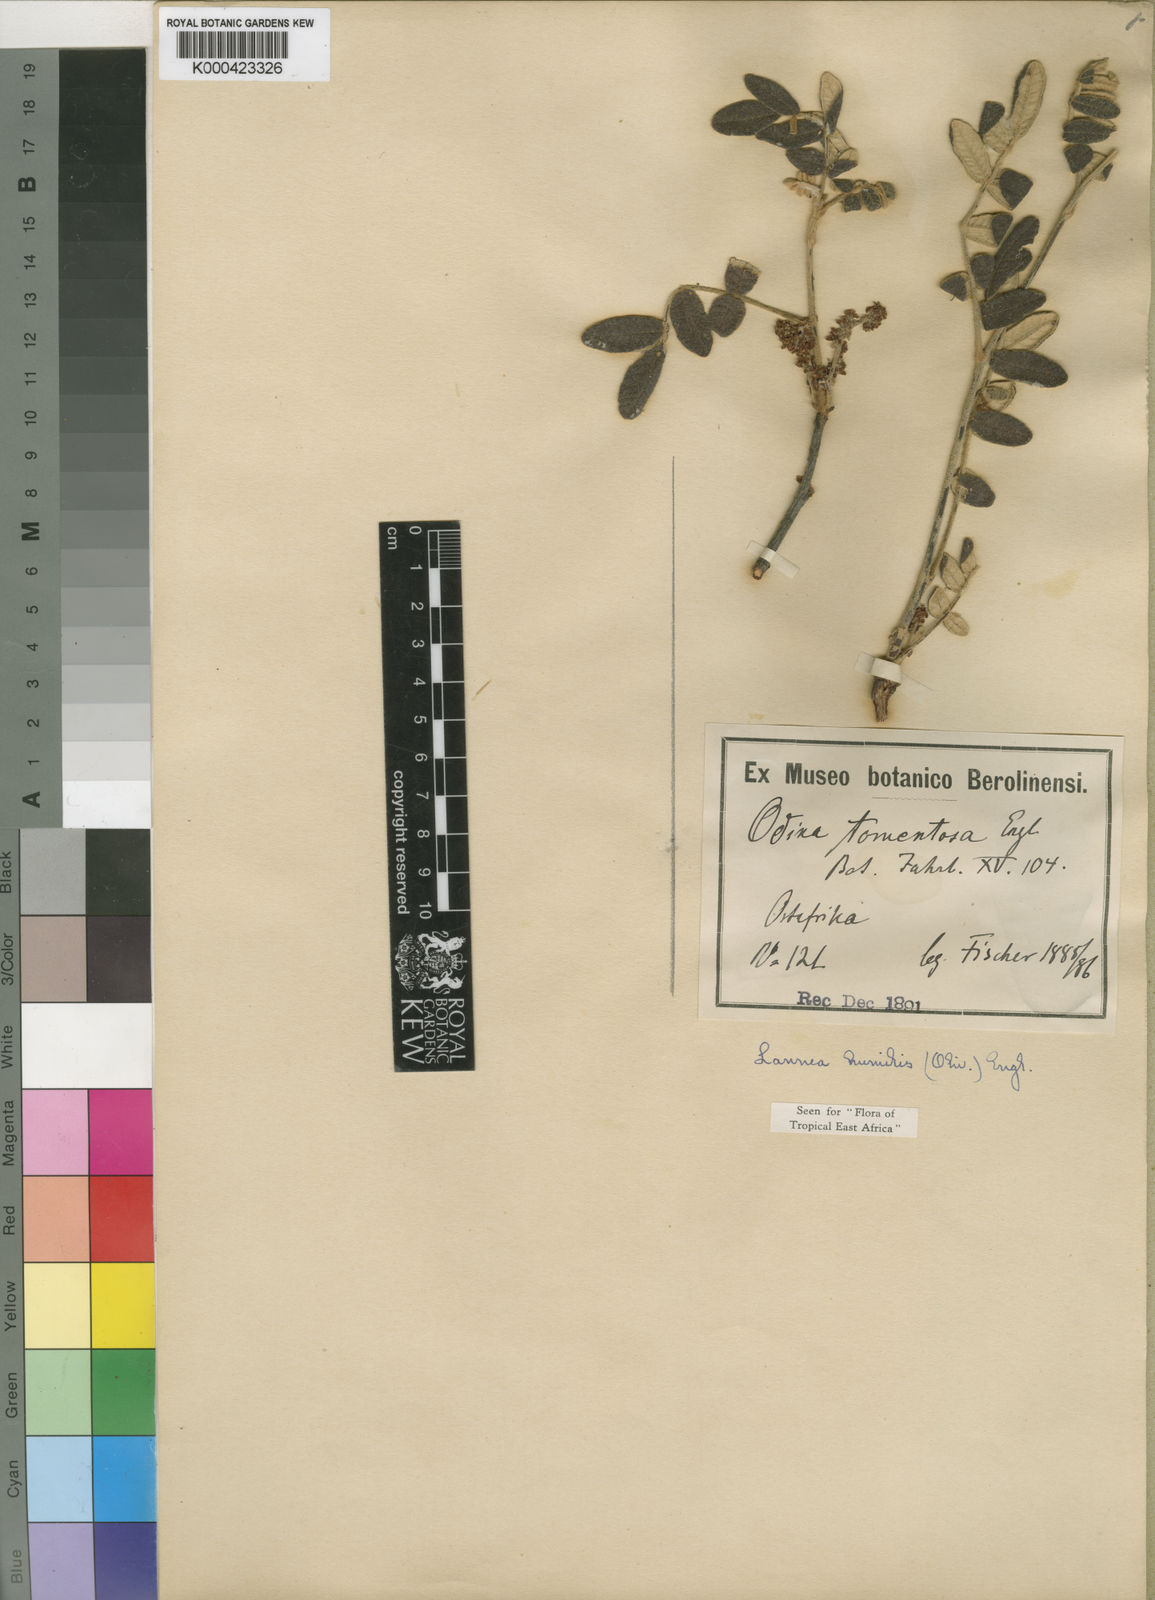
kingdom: Plantae
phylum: Tracheophyta
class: Magnoliopsida
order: Sapindales
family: Anacardiaceae
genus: Lannea
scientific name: Lannea humilis
